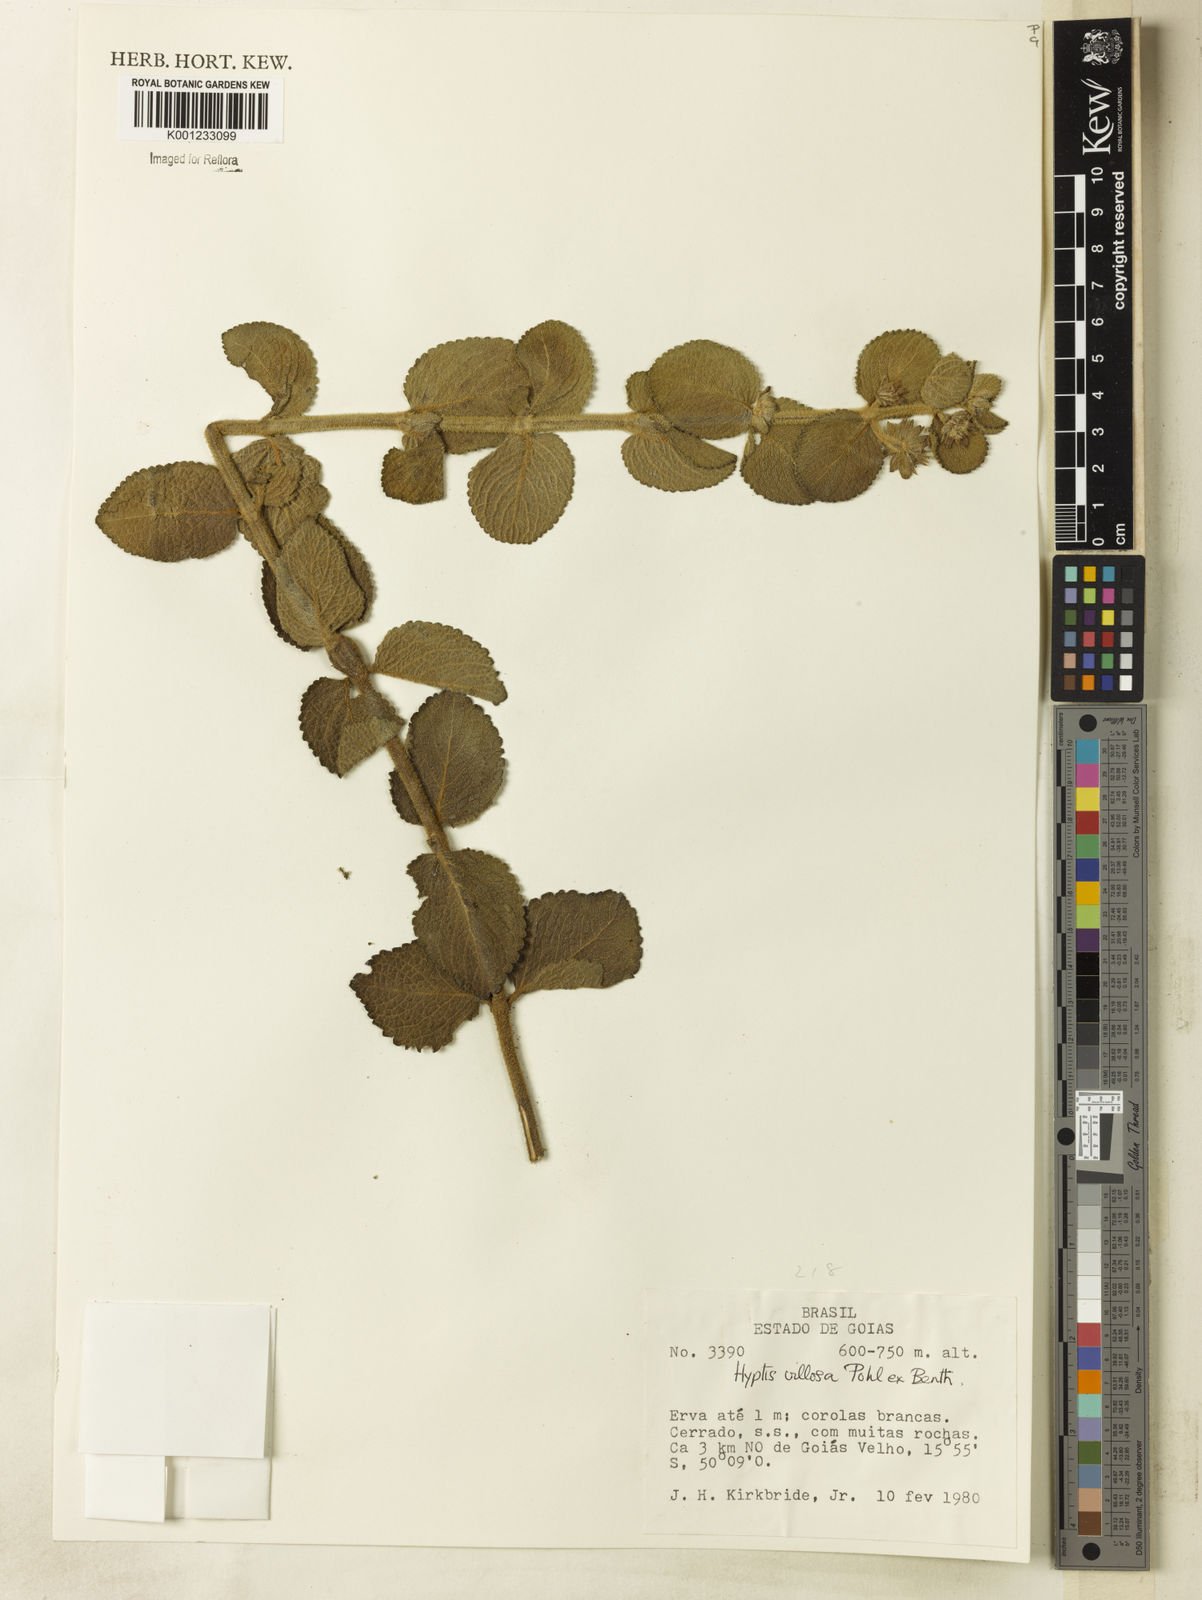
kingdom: Plantae
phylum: Tracheophyta
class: Magnoliopsida
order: Lamiales
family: Lamiaceae
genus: Hyptis
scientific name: Hyptis villosa
